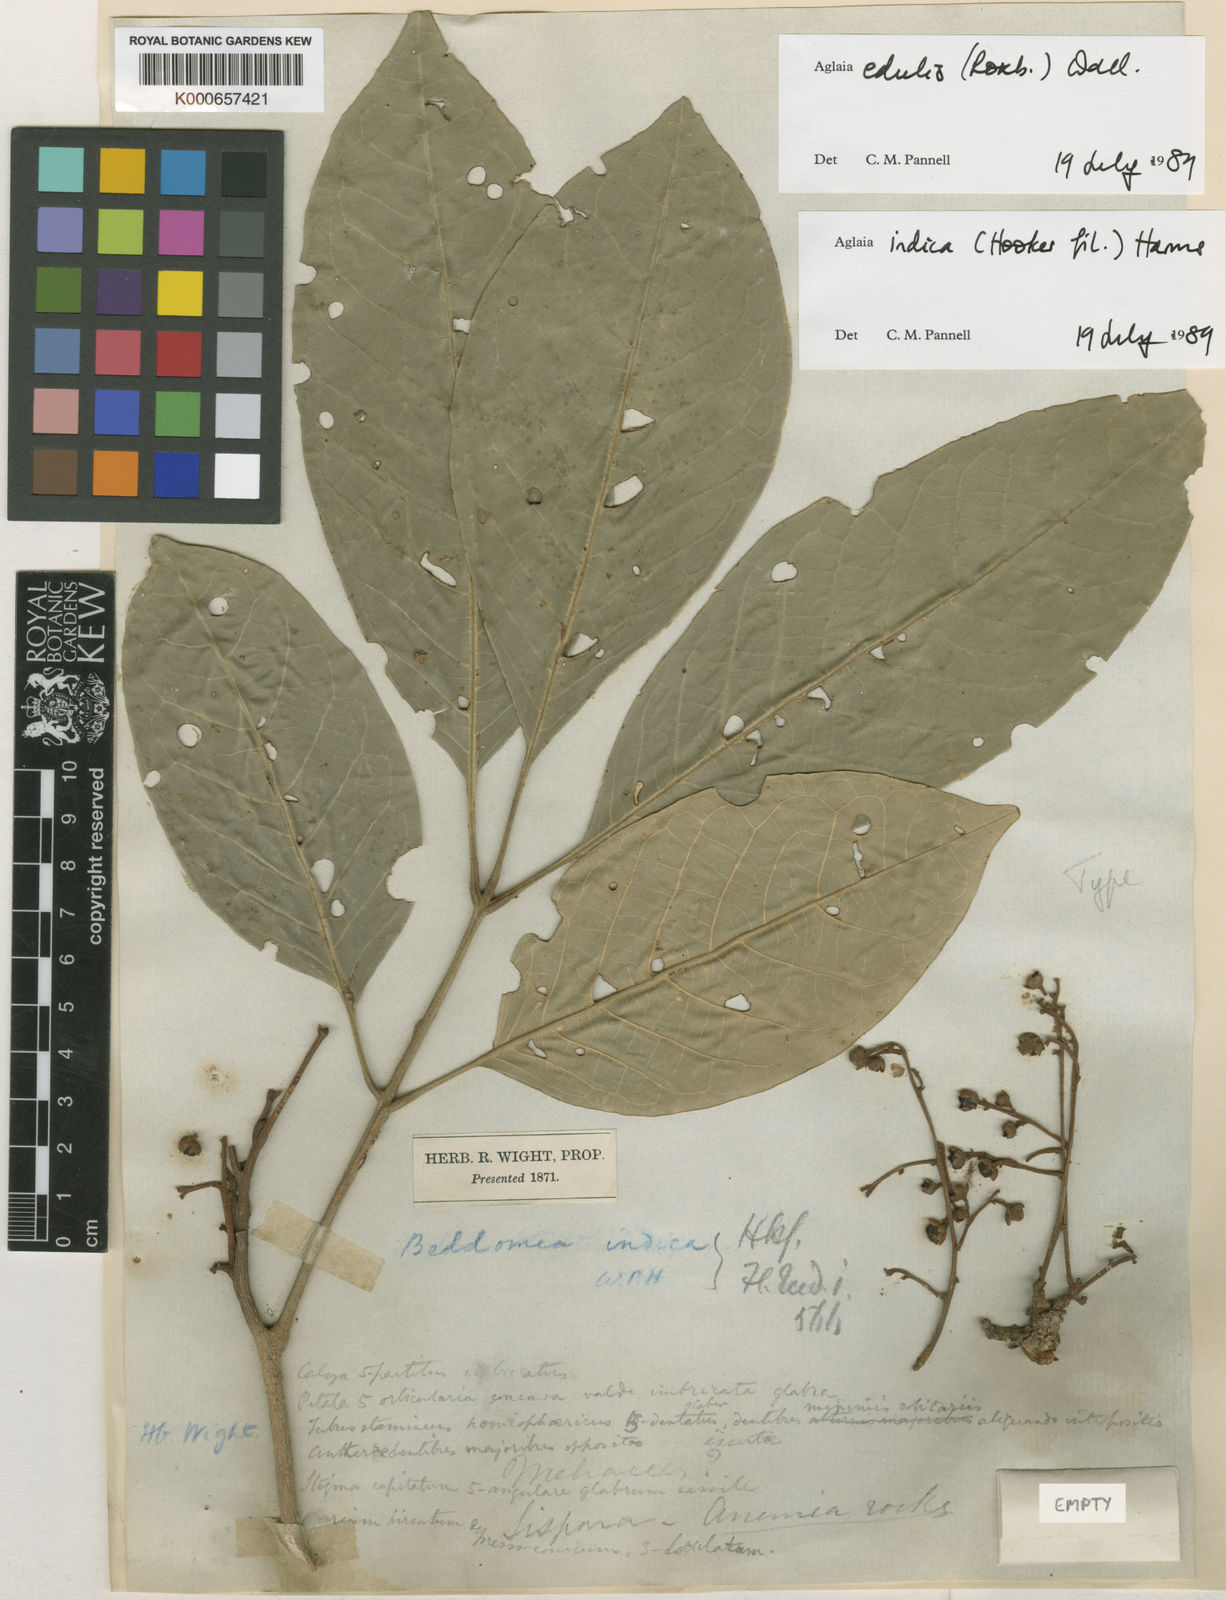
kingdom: Plantae
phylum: Tracheophyta
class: Magnoliopsida
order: Sapindales
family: Meliaceae
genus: Aglaia
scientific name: Aglaia edulis
